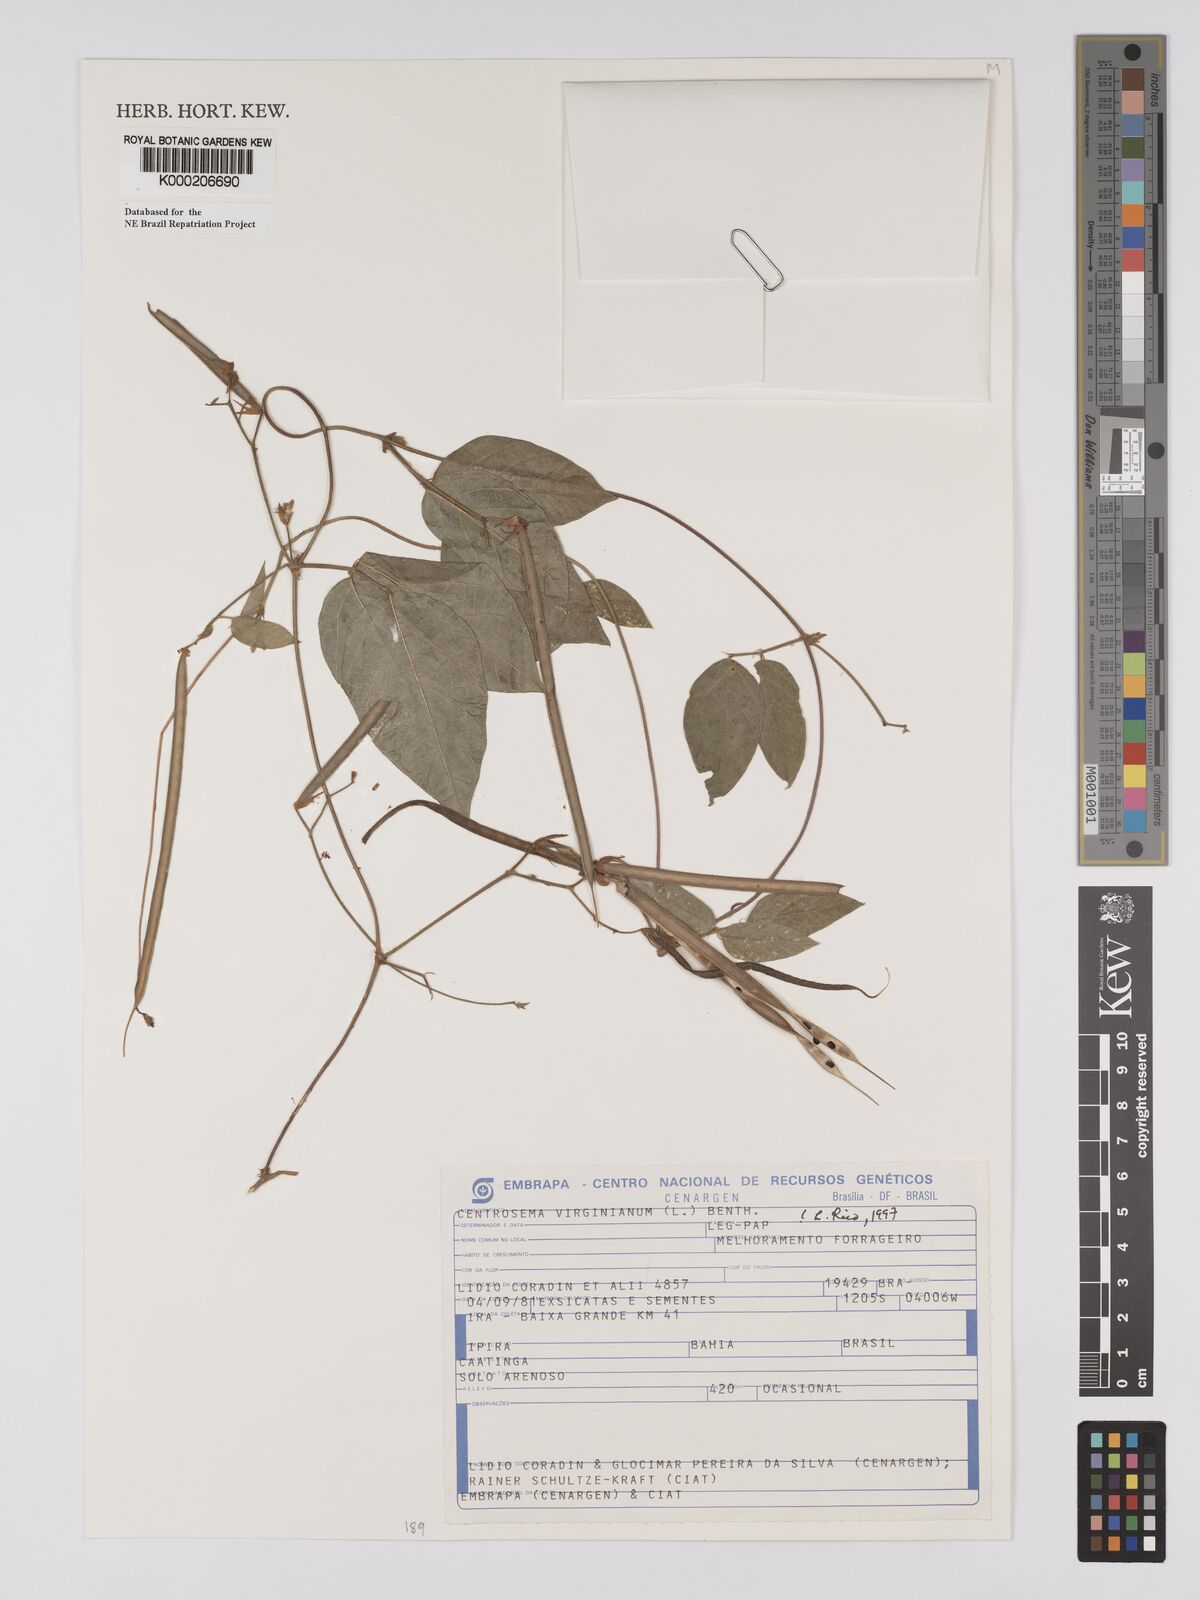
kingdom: Plantae
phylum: Tracheophyta
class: Magnoliopsida
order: Fabales
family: Fabaceae
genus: Centrosema
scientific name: Centrosema virginianum
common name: Butterfly-pea
